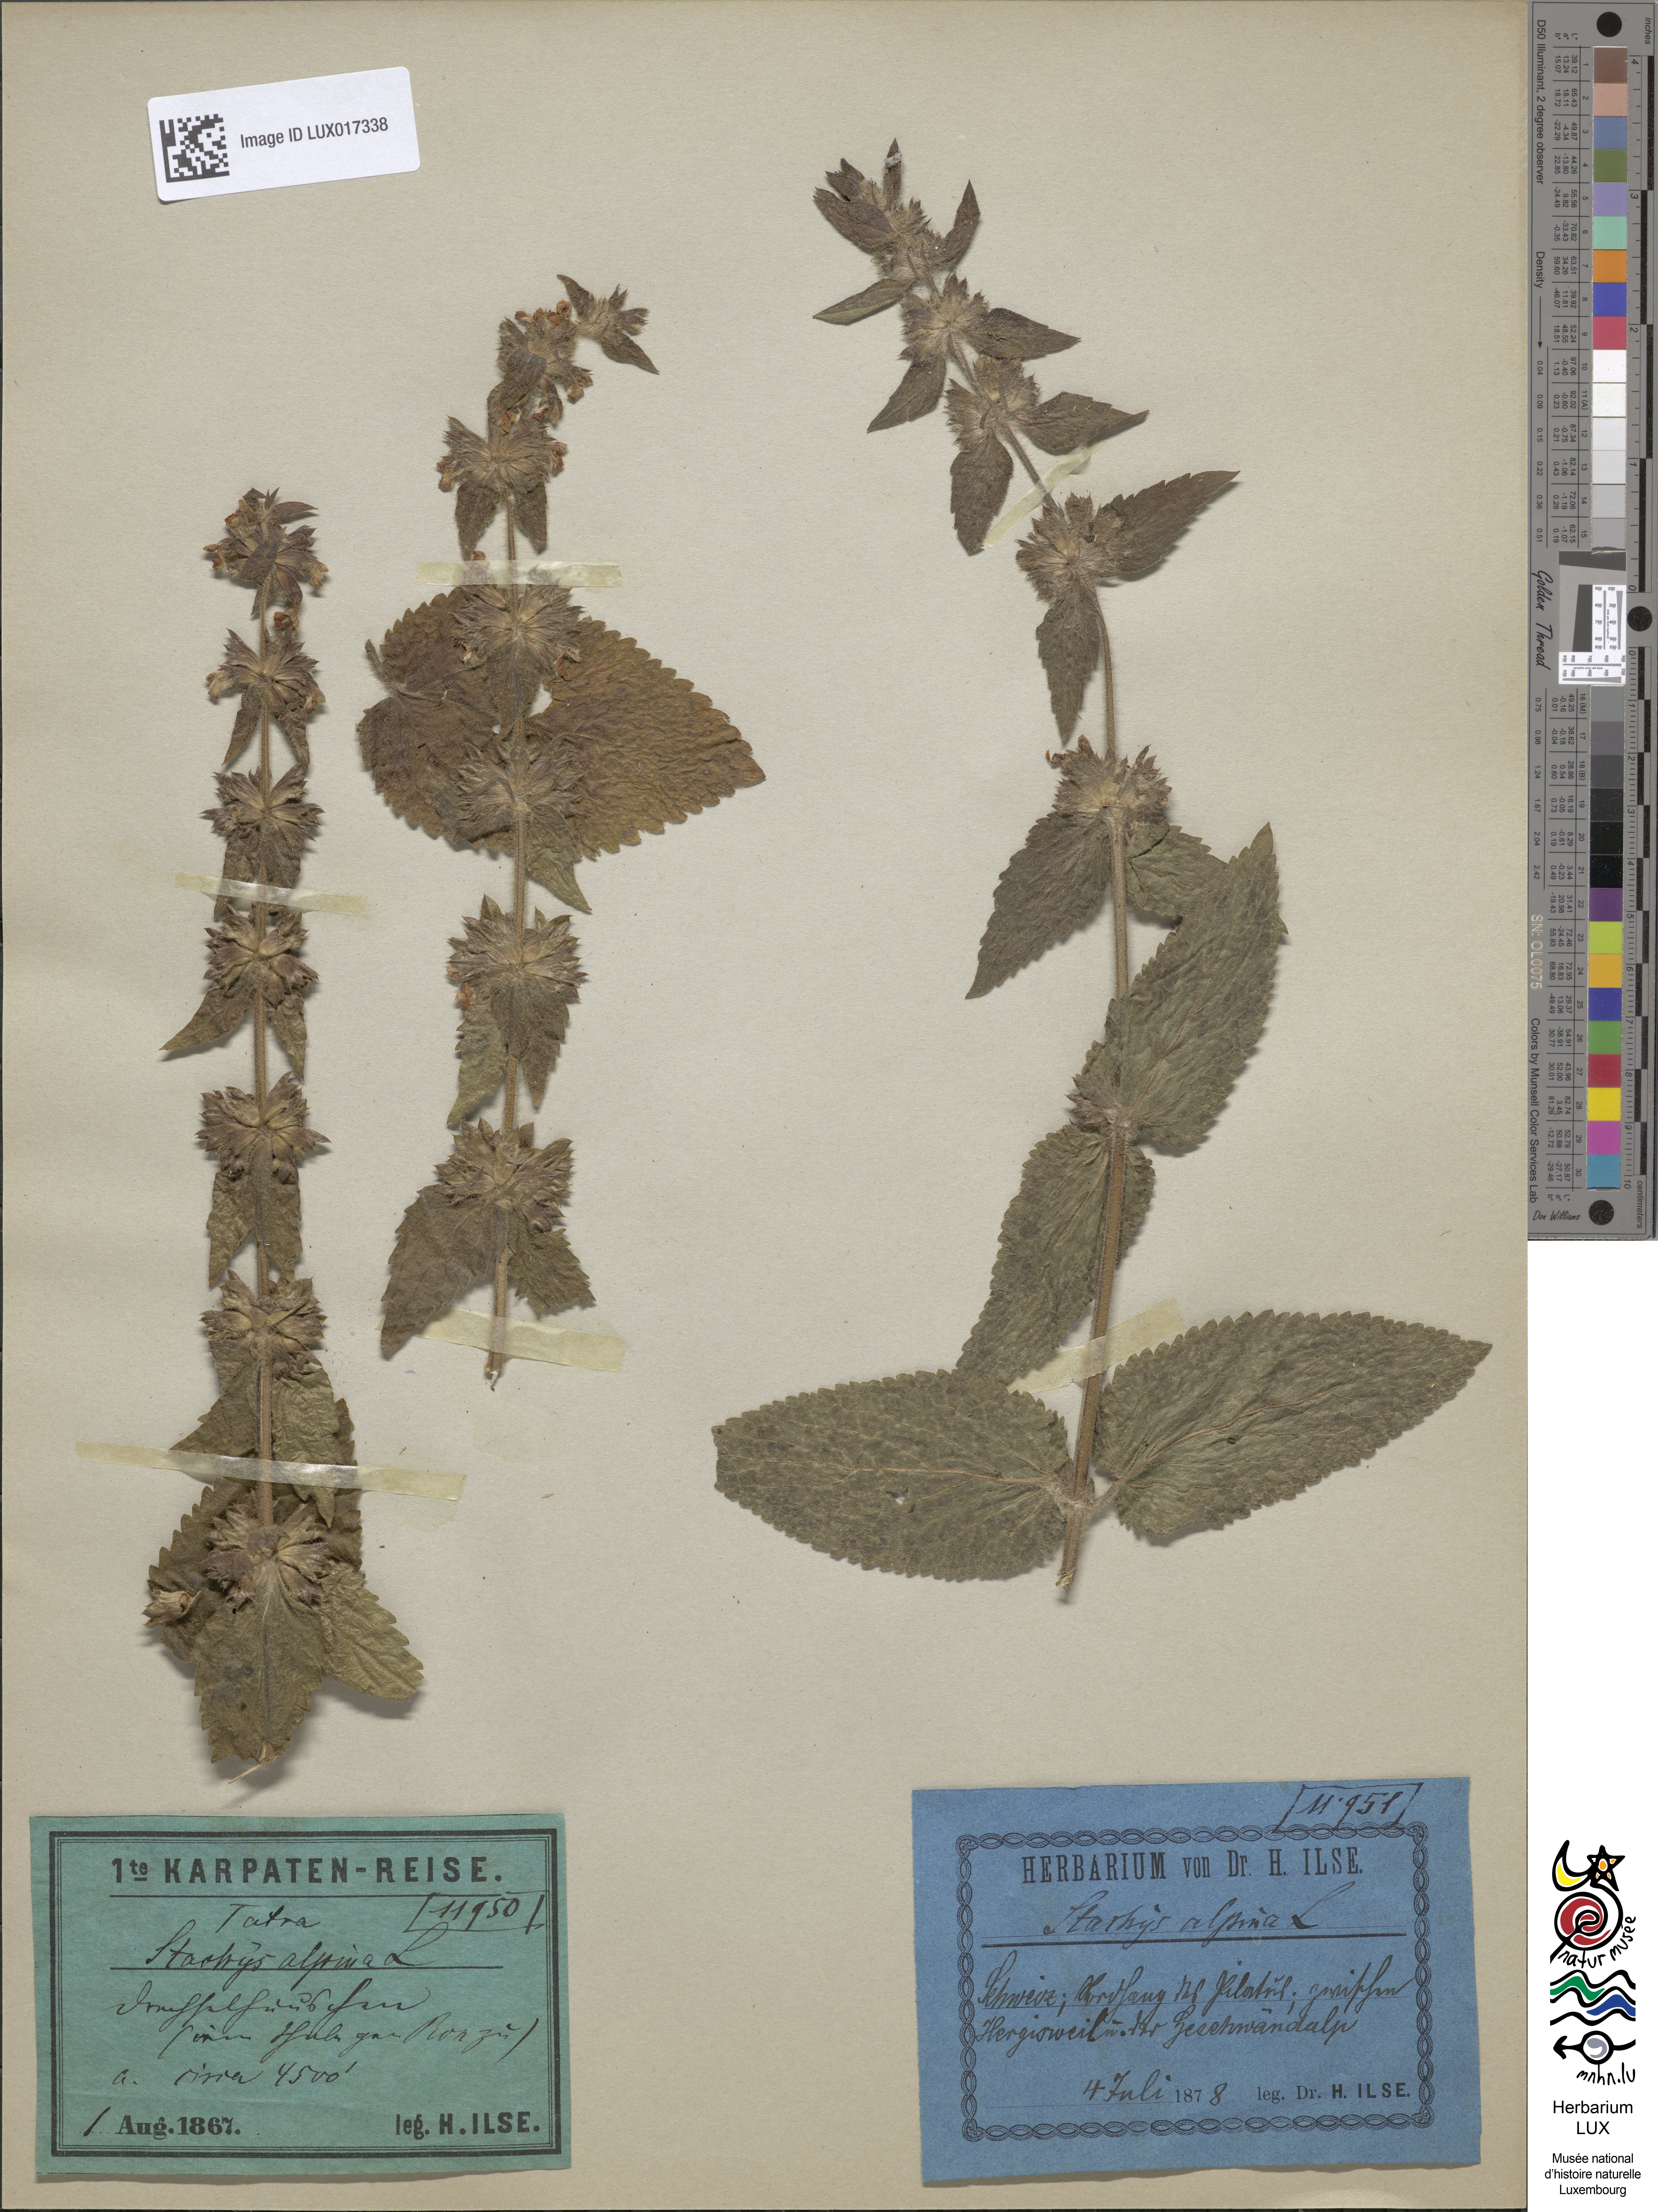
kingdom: Plantae
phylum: Tracheophyta
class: Magnoliopsida
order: Lamiales
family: Lamiaceae
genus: Stachys
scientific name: Stachys alpina
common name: Limestone woundwort
